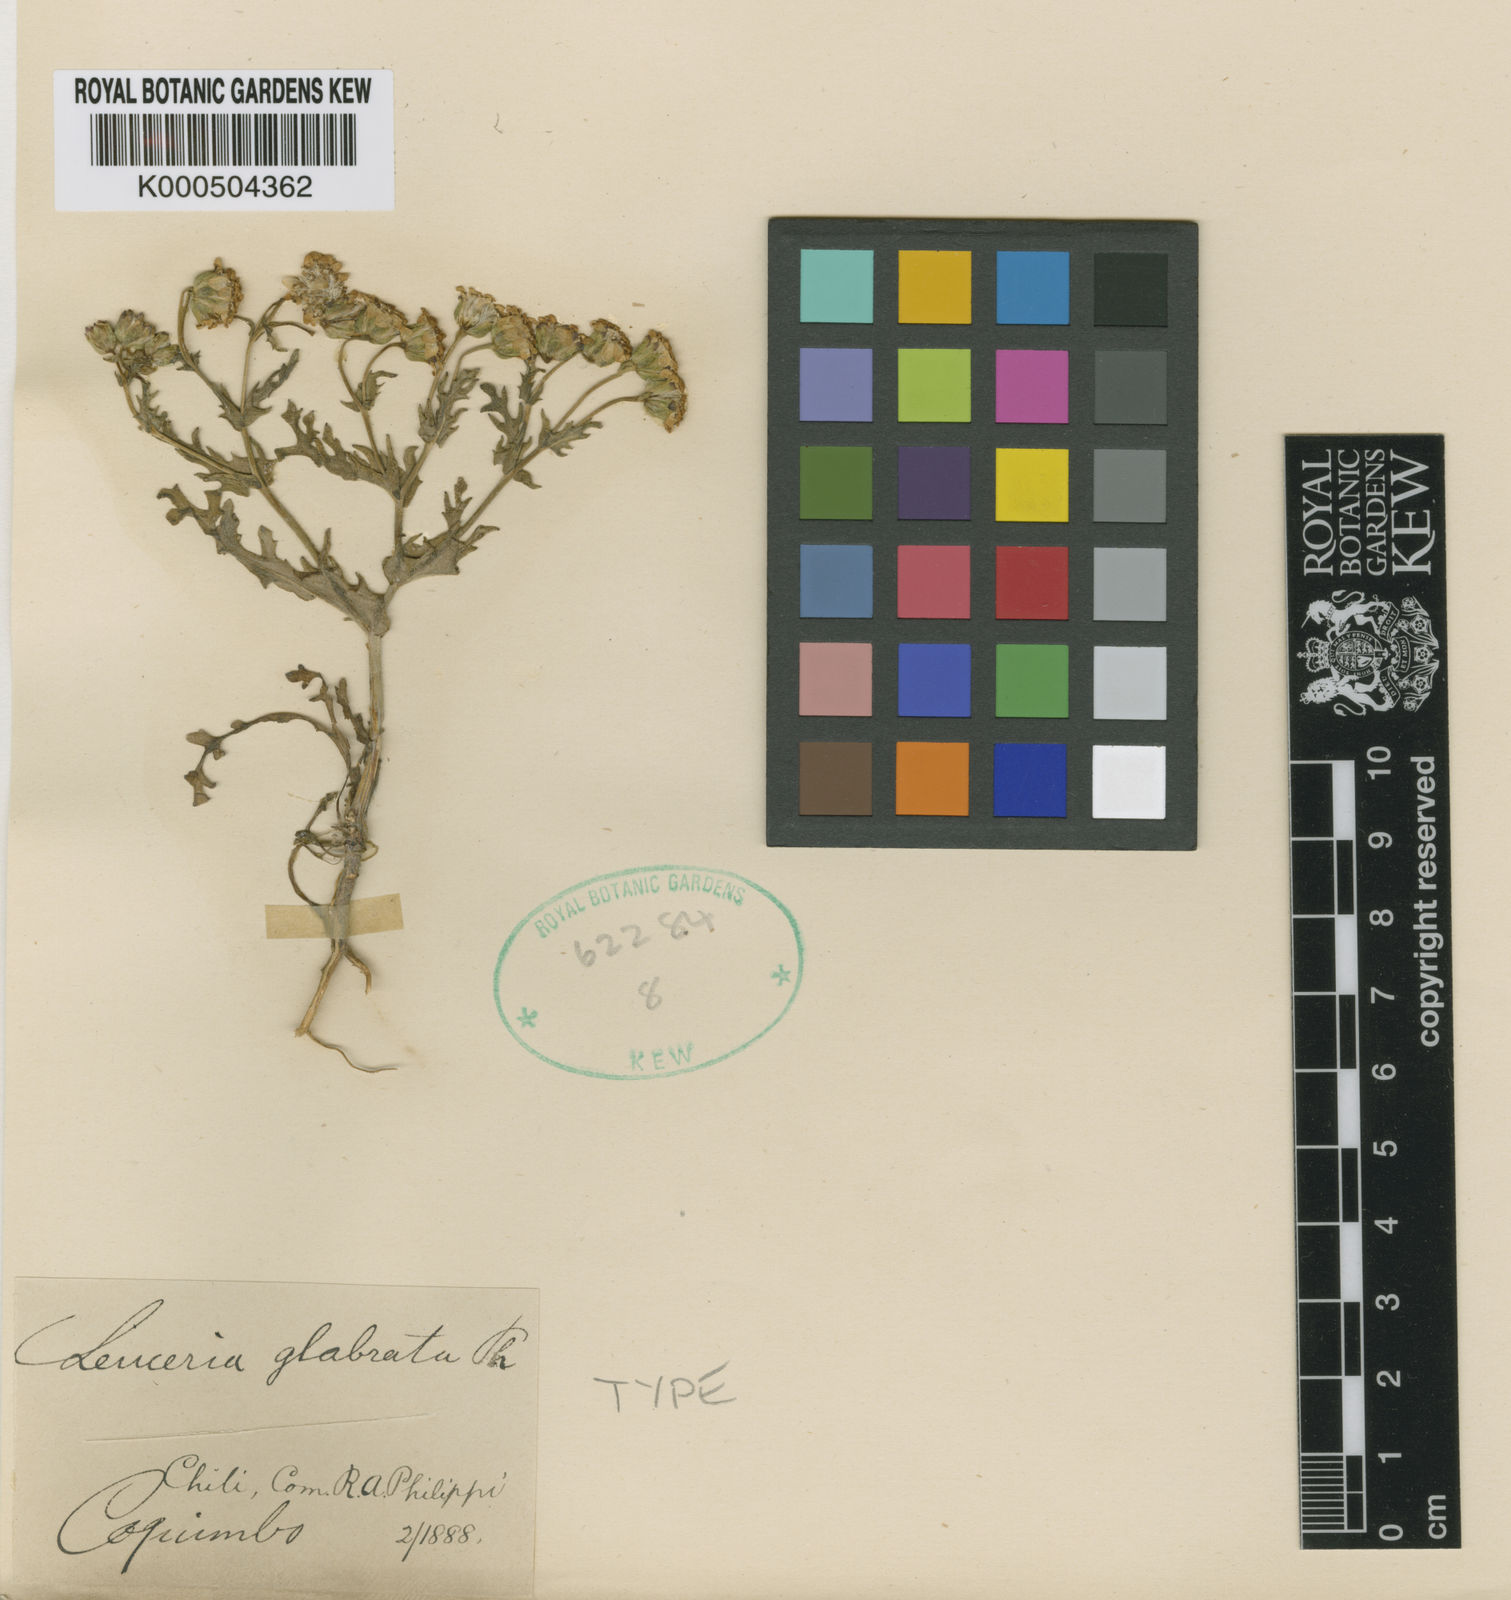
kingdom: Plantae
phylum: Tracheophyta
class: Magnoliopsida
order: Asterales
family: Asteraceae
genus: Leucheria
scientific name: Leucheria cerberoana
